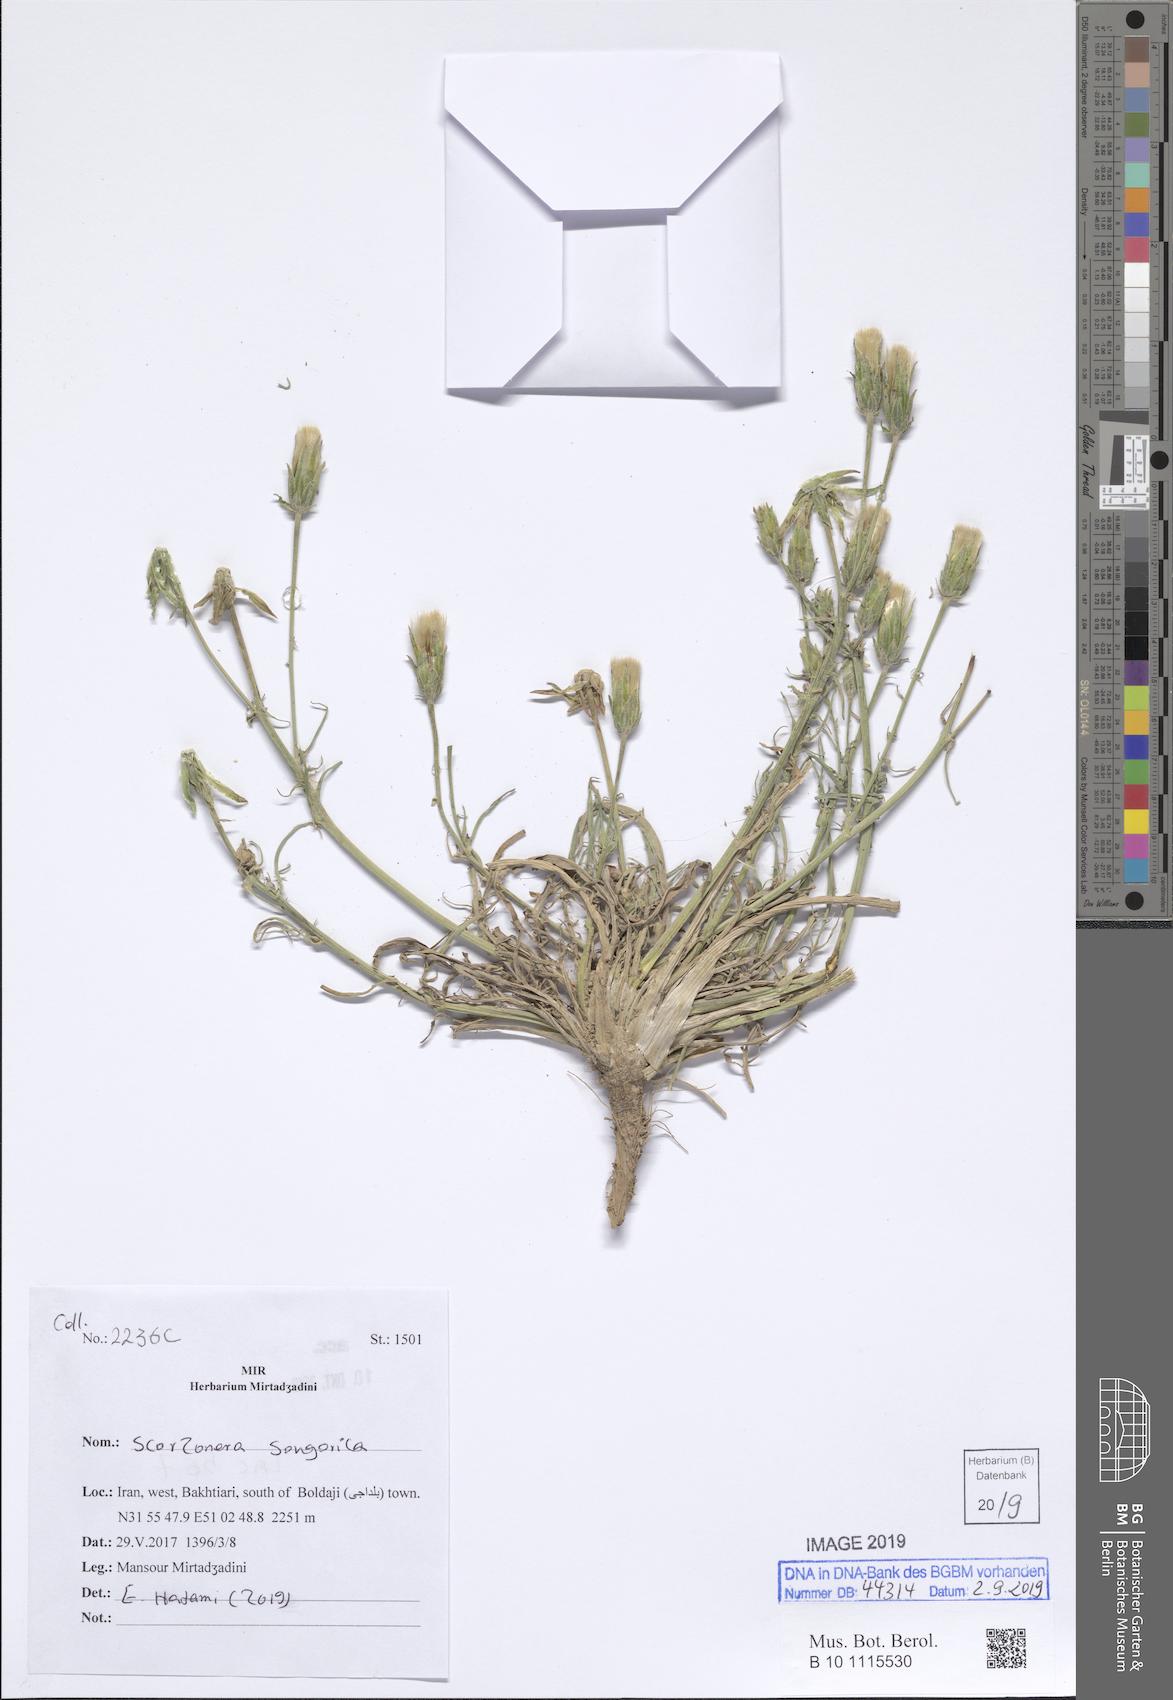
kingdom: Plantae
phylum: Tracheophyta
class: Magnoliopsida
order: Asterales
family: Asteraceae
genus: Scorzonera
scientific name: Scorzonera songorica
